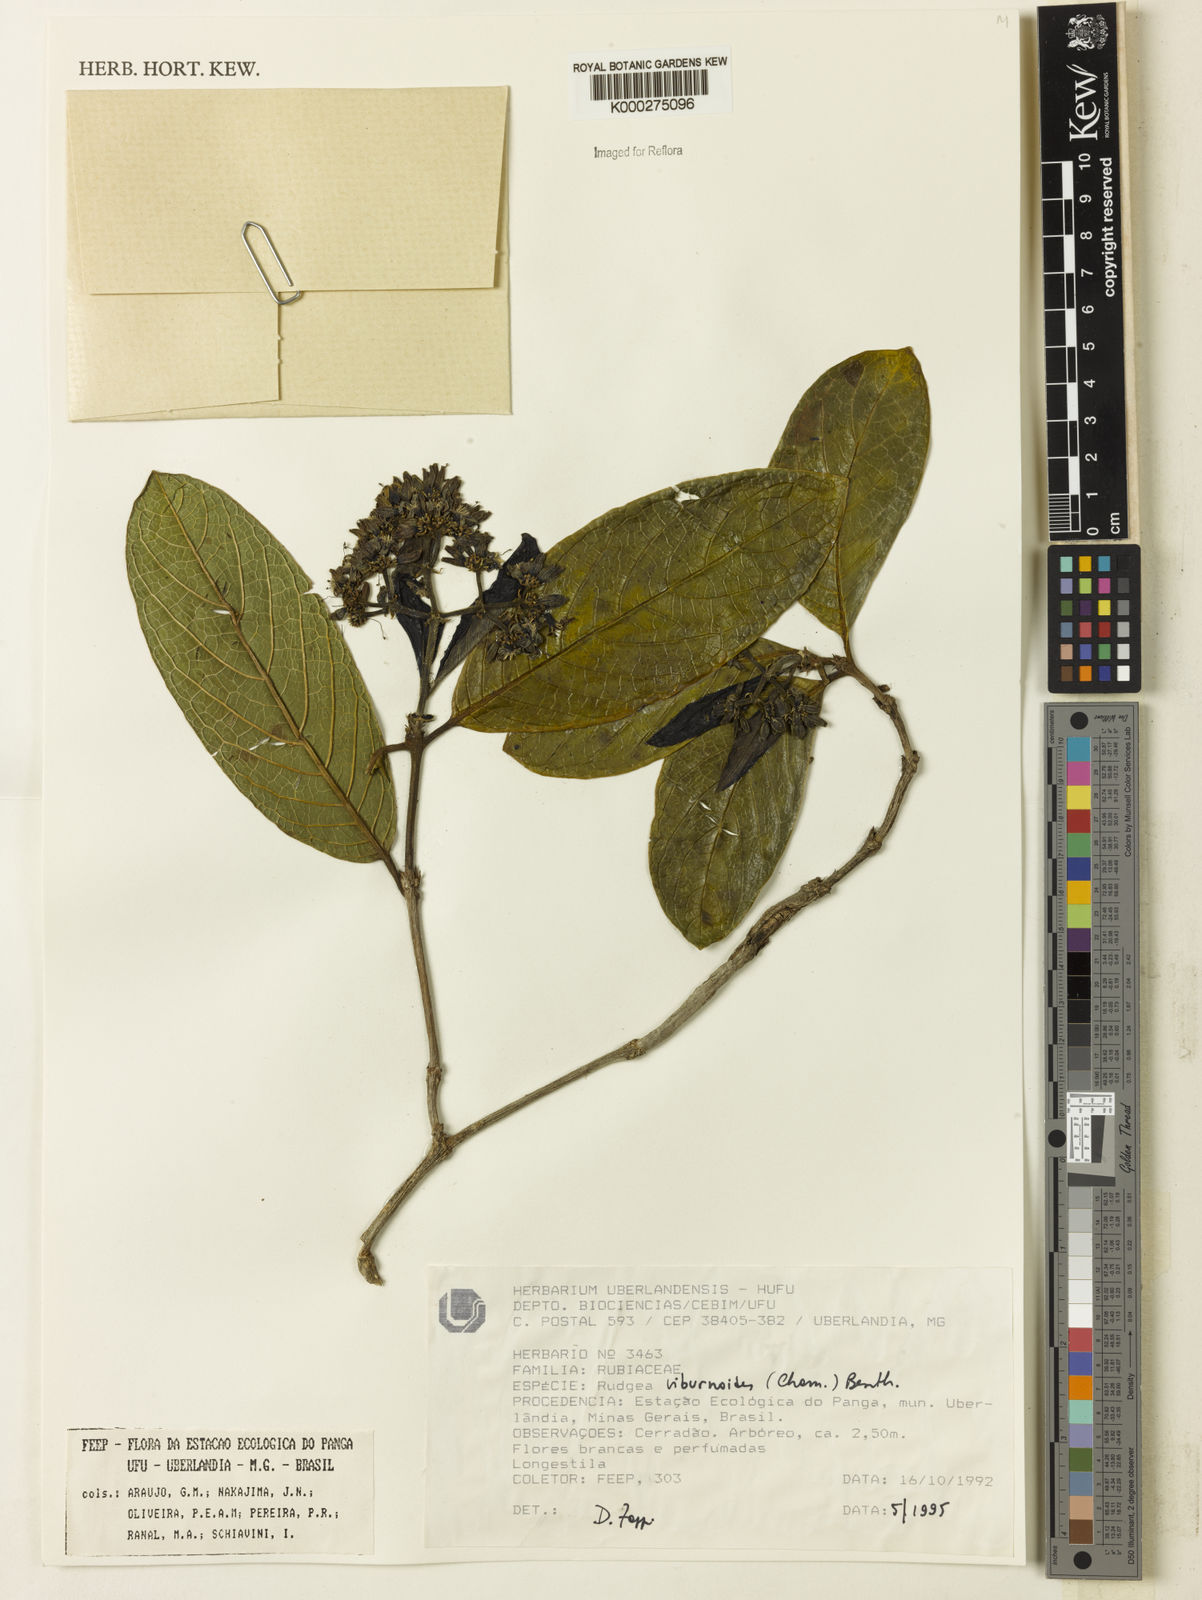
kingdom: Plantae
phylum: Tracheophyta
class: Magnoliopsida
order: Gentianales
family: Rubiaceae
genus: Rudgea
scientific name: Rudgea viburnoides
